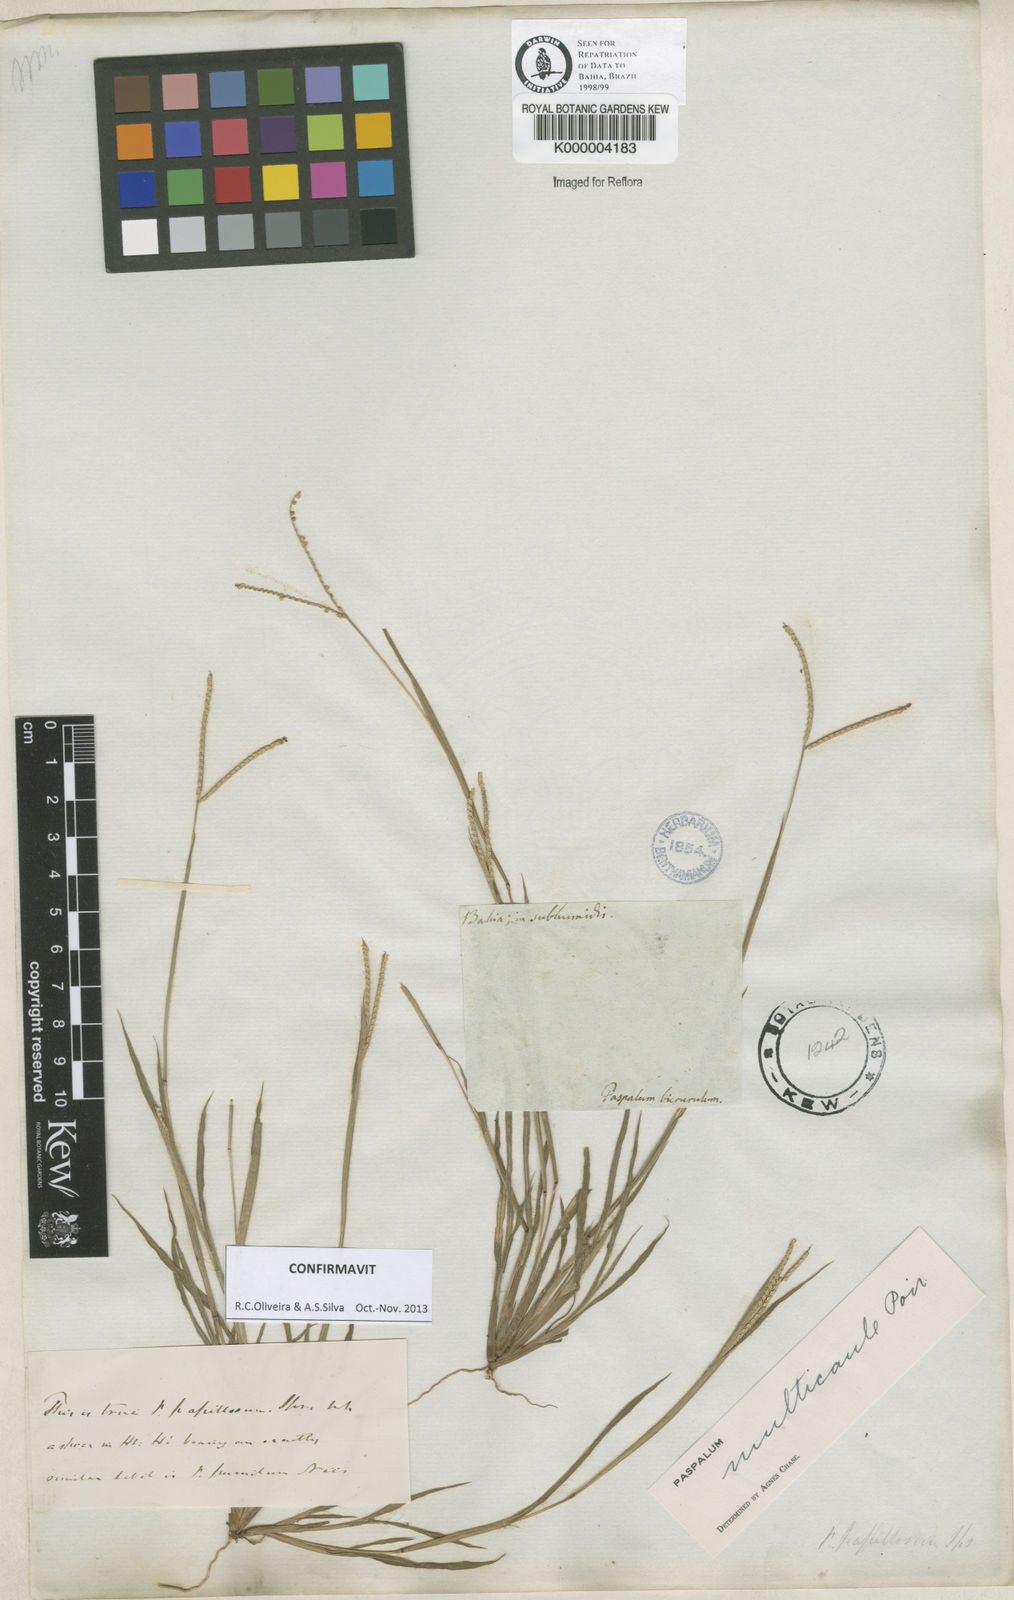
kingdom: Plantae
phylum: Tracheophyta
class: Liliopsida
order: Poales
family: Poaceae
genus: Paspalum
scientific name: Paspalum multicaule
